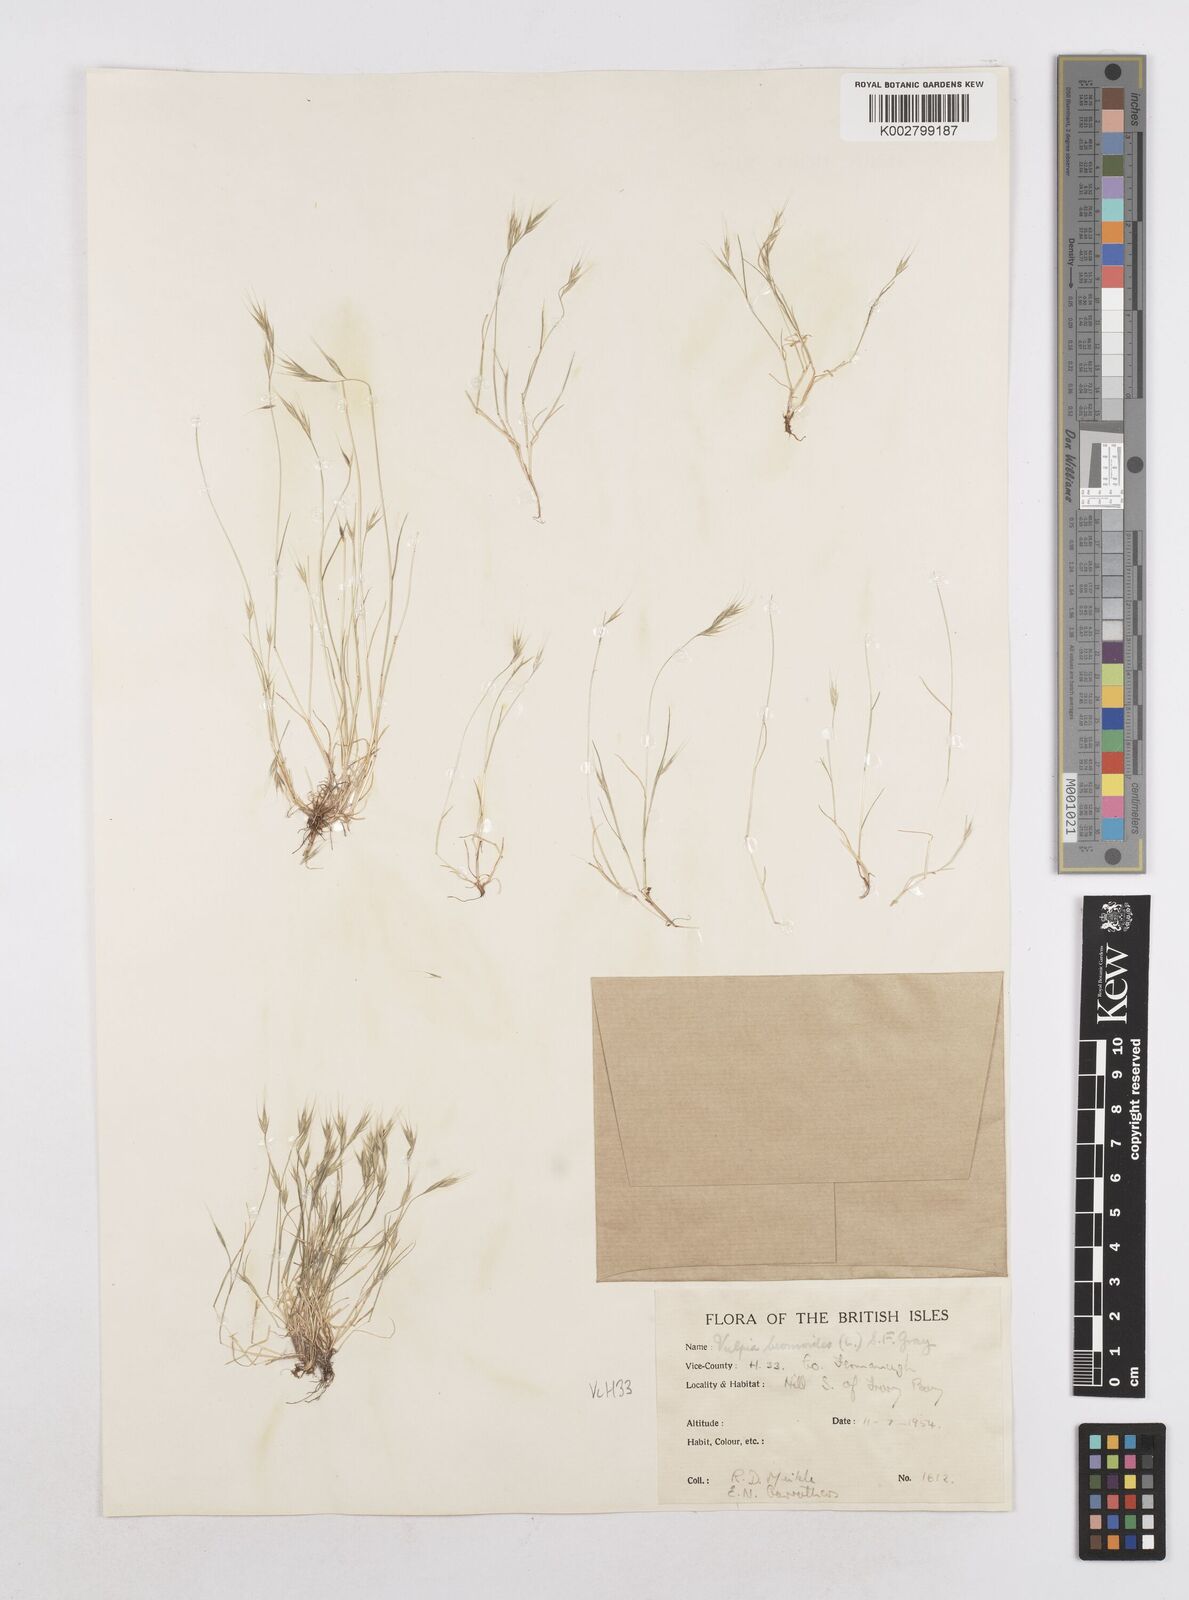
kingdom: Plantae
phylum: Tracheophyta
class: Liliopsida
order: Poales
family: Poaceae
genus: Festuca
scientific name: Festuca bromoides
